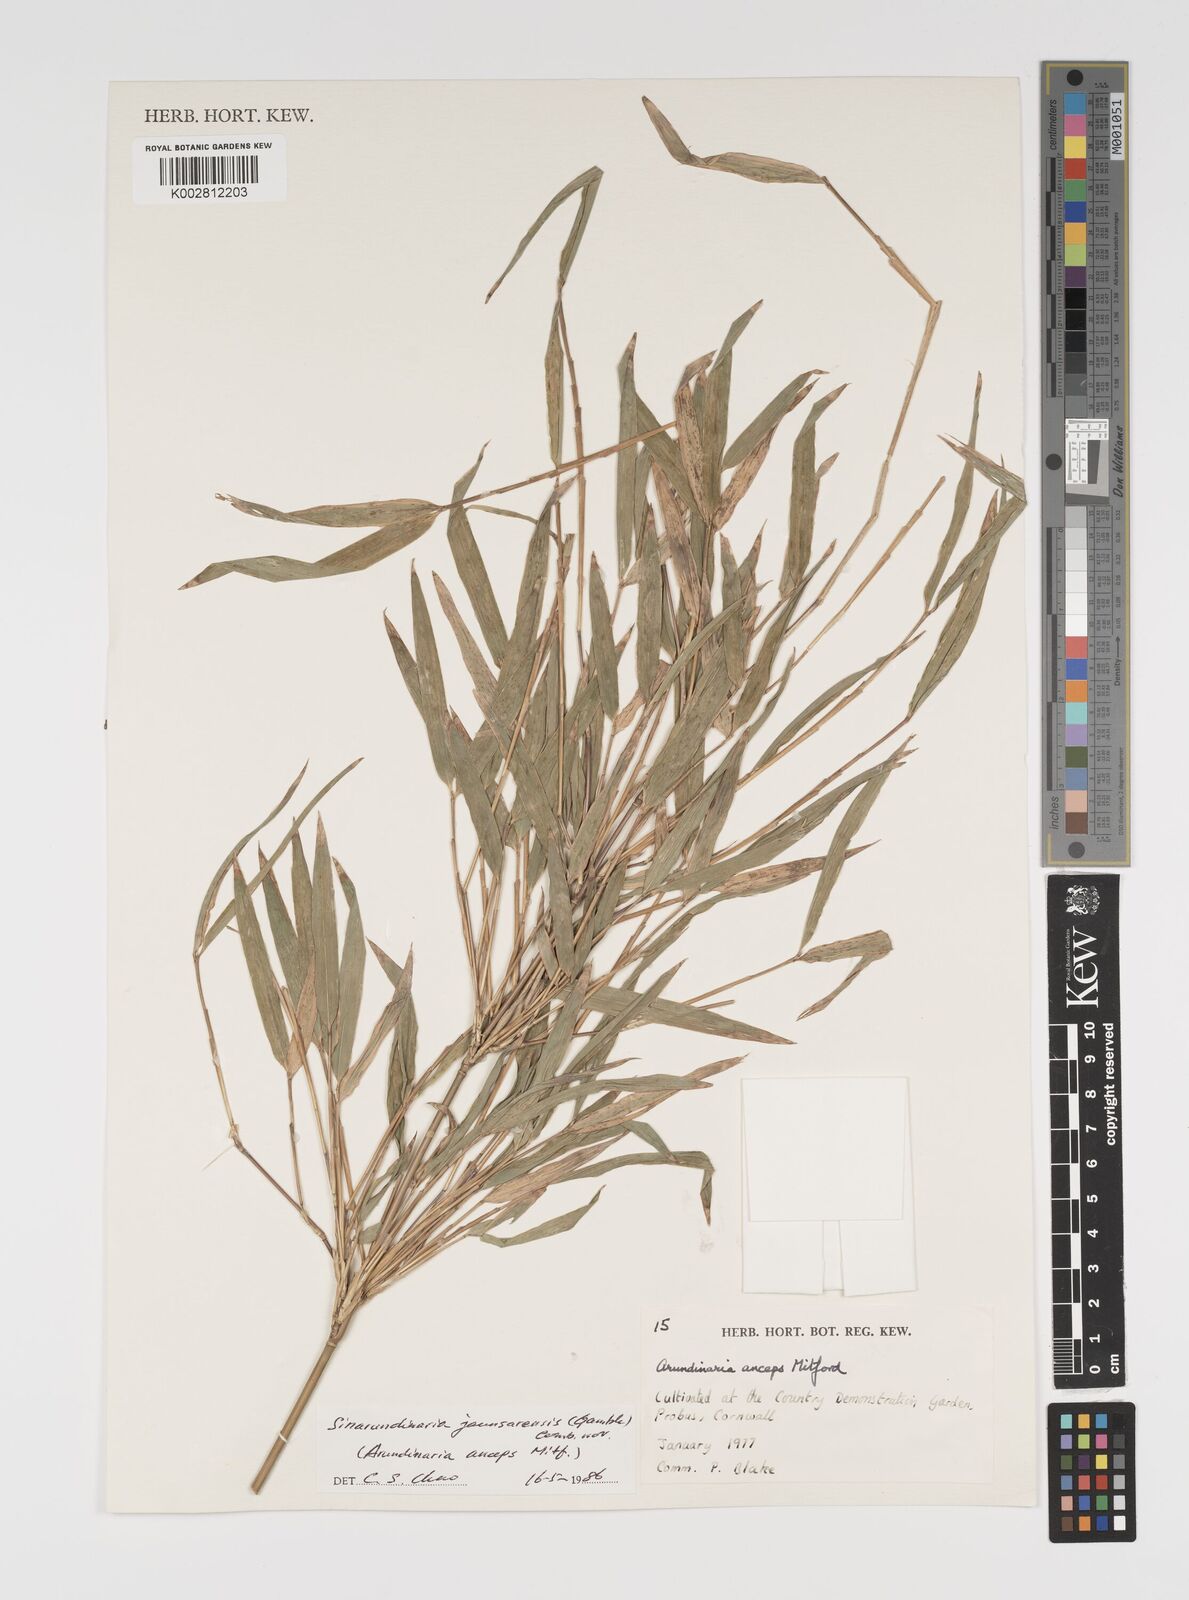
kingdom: Plantae
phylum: Tracheophyta
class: Liliopsida
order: Poales
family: Poaceae
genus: Yushania
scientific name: Yushania anceps
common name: Indian fountain-bamboo
